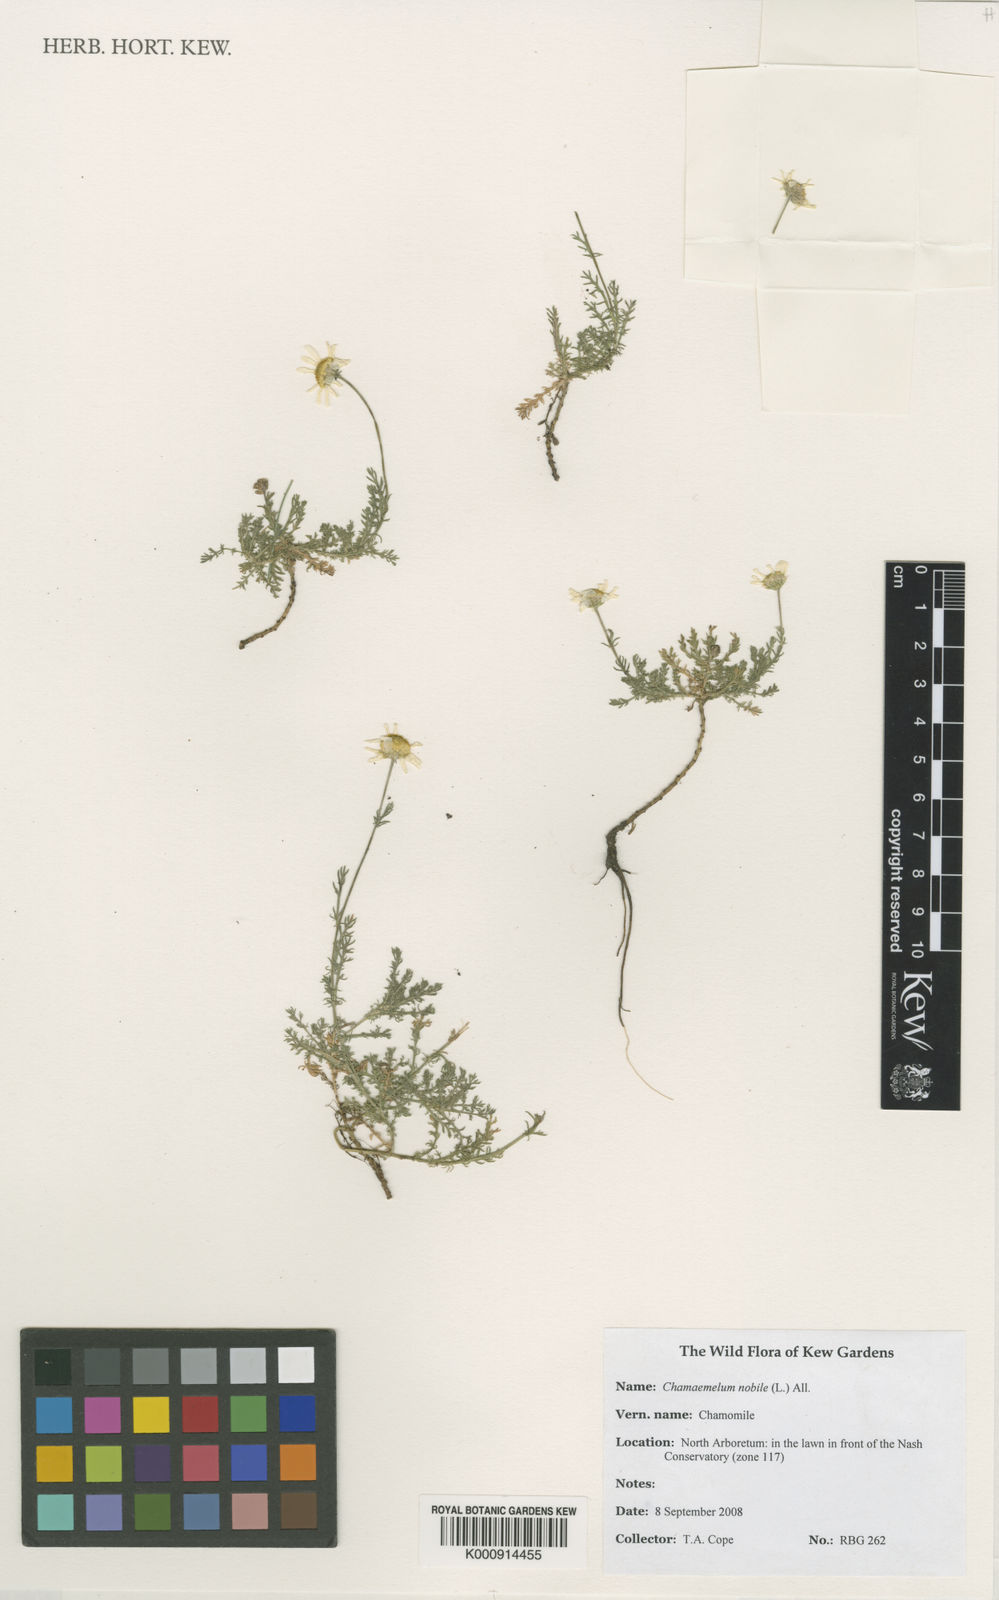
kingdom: Plantae
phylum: Tracheophyta
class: Magnoliopsida
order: Asterales
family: Asteraceae
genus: Chamaemelum
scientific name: Chamaemelum nobile
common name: Roman chamomile
